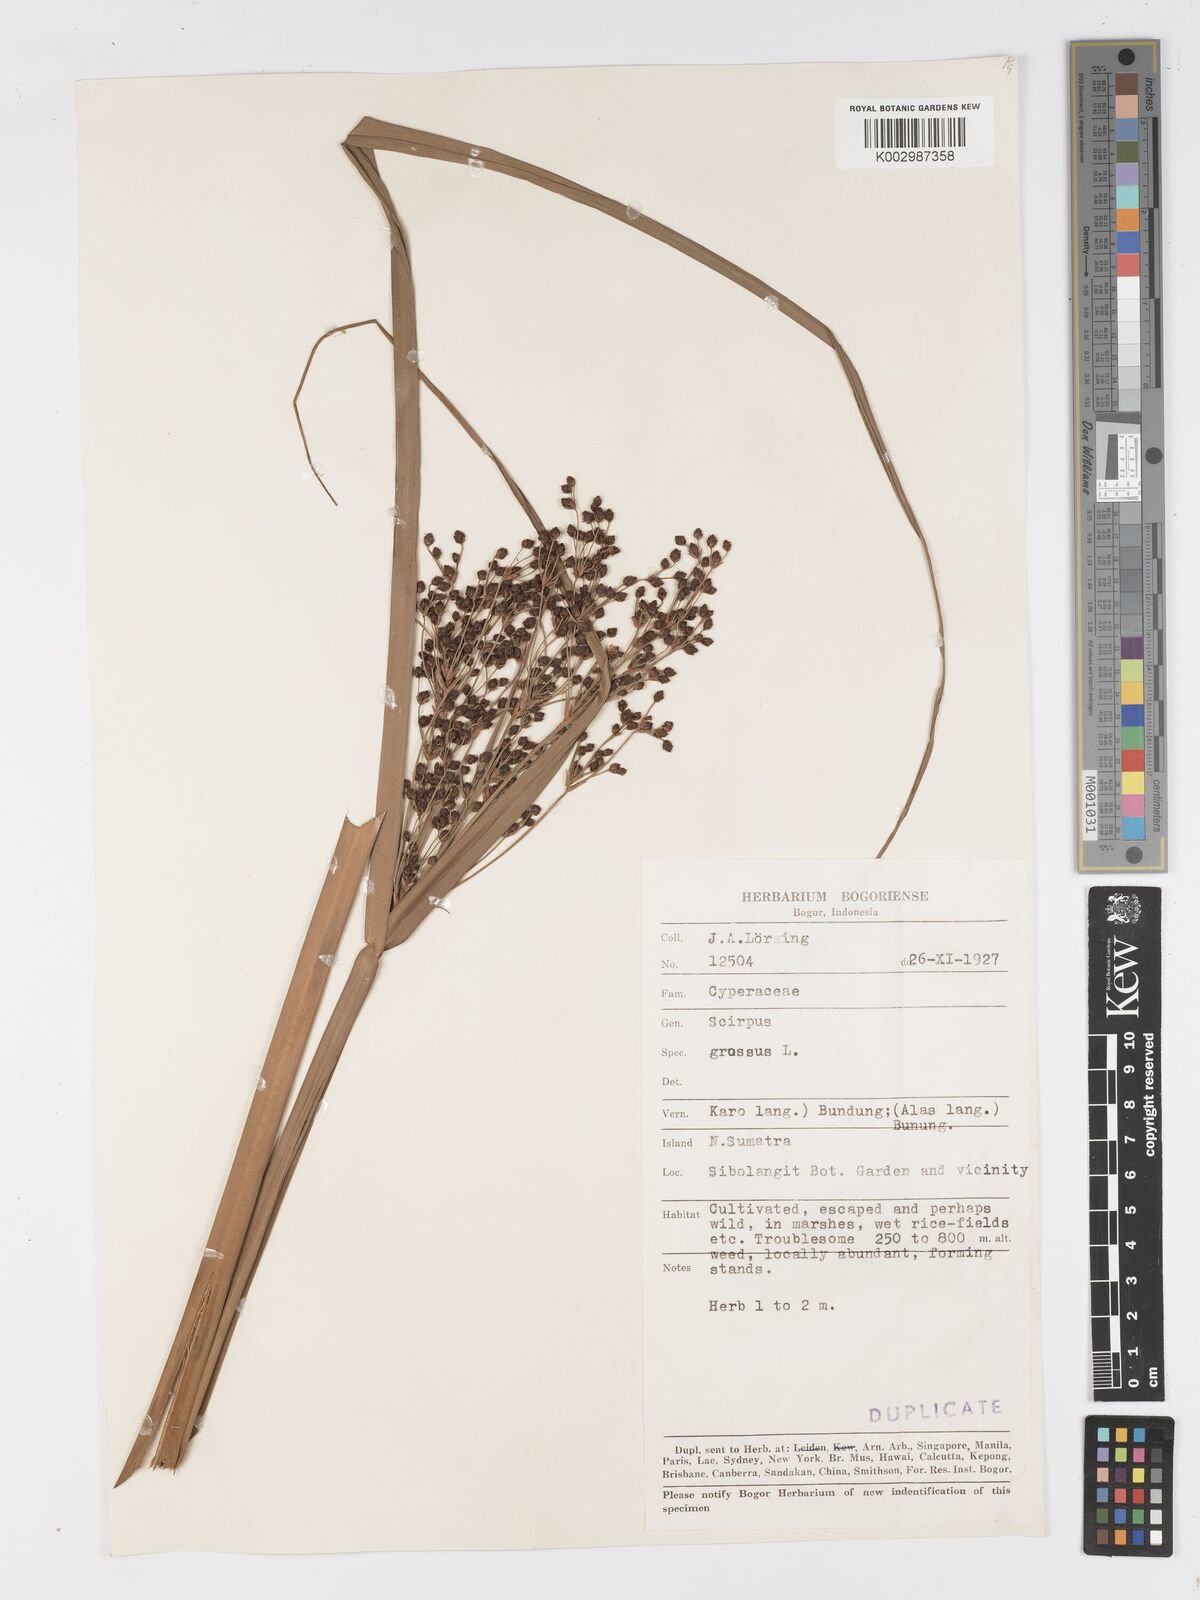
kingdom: Plantae
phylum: Tracheophyta
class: Liliopsida
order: Poales
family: Cyperaceae
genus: Actinoscirpus
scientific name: Actinoscirpus grossus
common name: Giant bur rush
